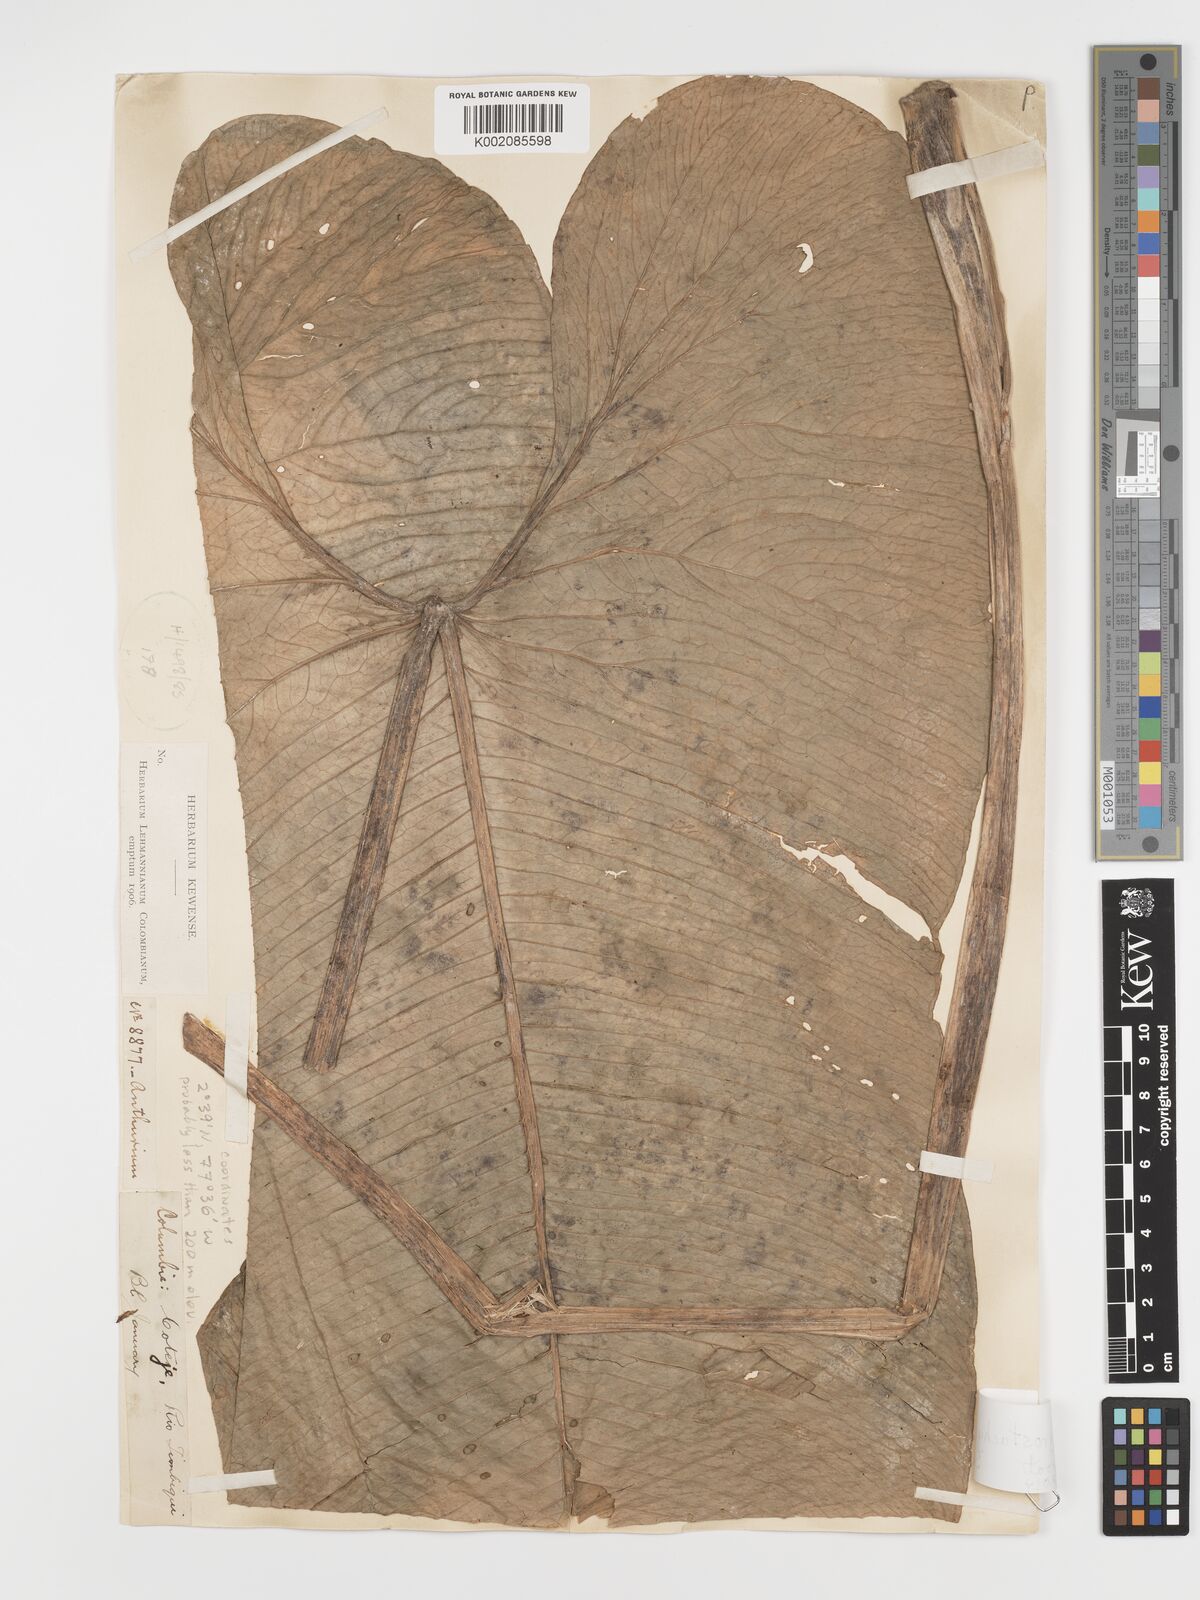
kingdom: Plantae
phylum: Tracheophyta
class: Liliopsida
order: Alismatales
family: Araceae
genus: Anthurium
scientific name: Anthurium argyrostachyum
